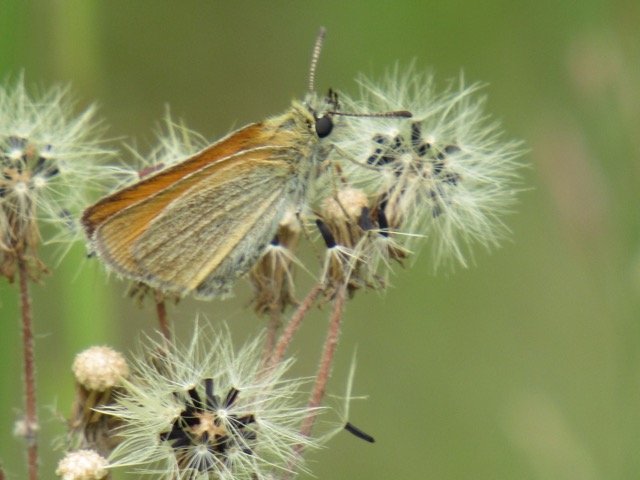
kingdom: Animalia
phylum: Arthropoda
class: Insecta
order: Lepidoptera
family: Hesperiidae
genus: Thymelicus
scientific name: Thymelicus lineola
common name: European Skipper
